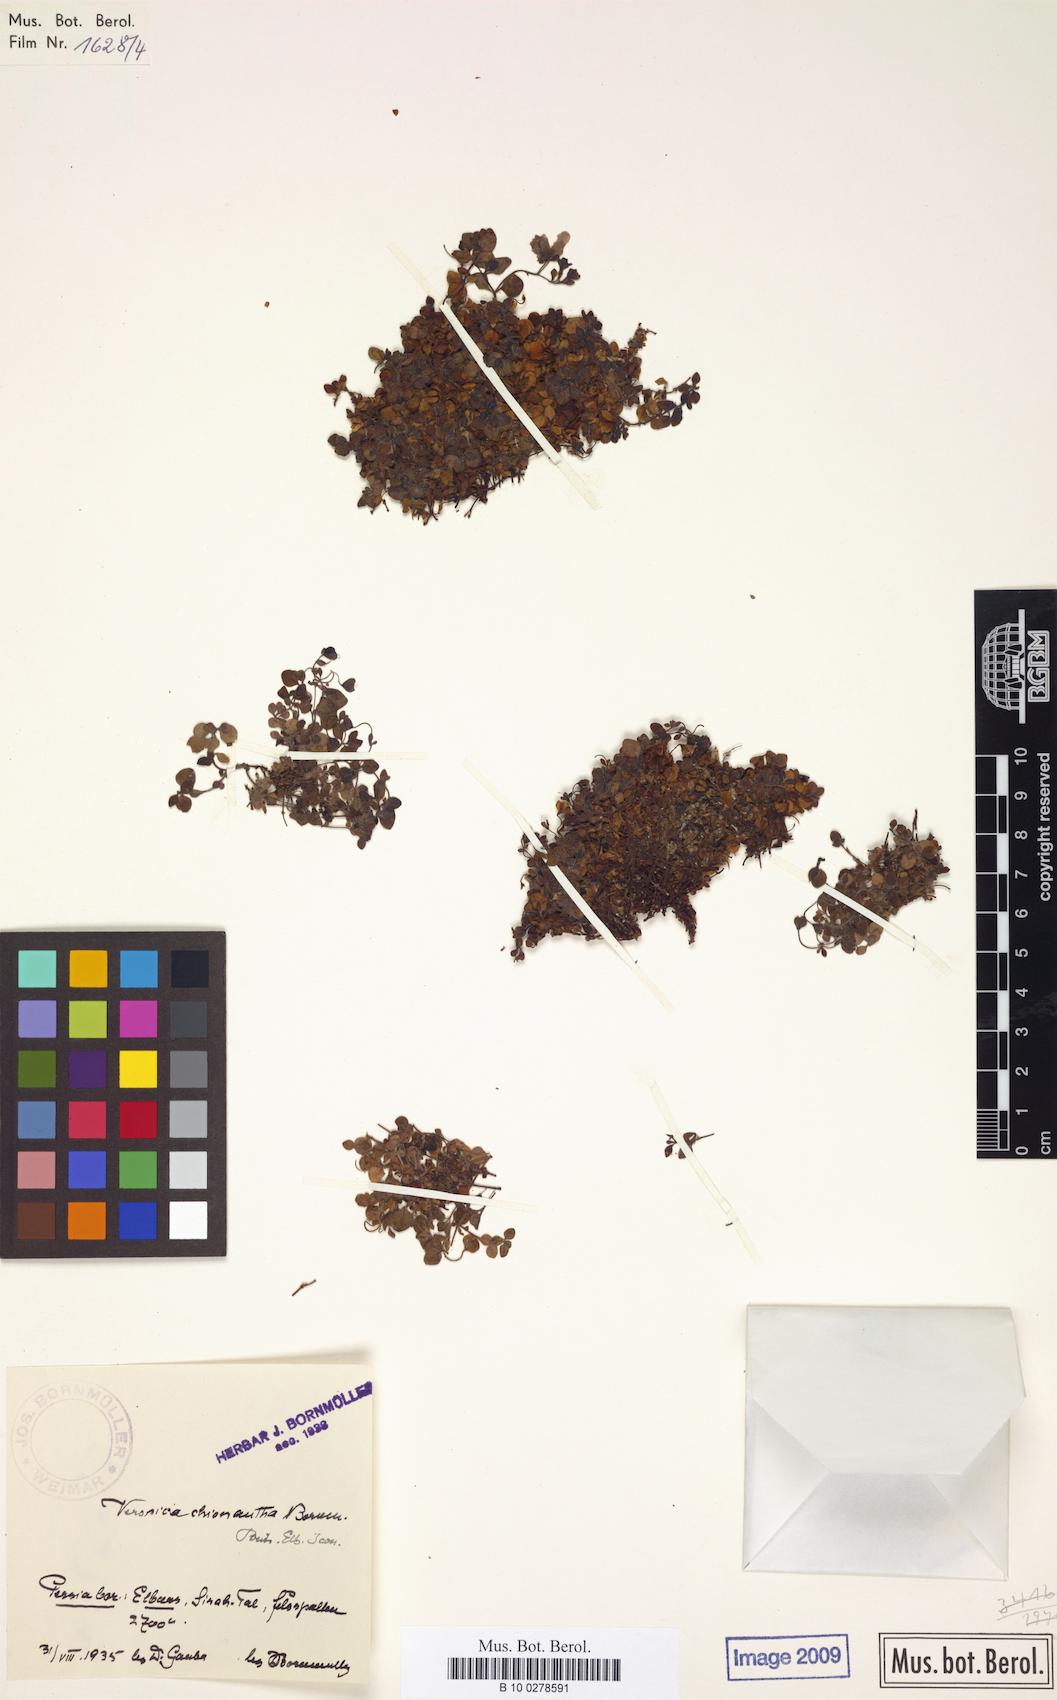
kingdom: Plantae
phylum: Tracheophyta
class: Magnoliopsida
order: Lamiales
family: Plantaginaceae
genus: Veronica
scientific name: Veronica chionantha
